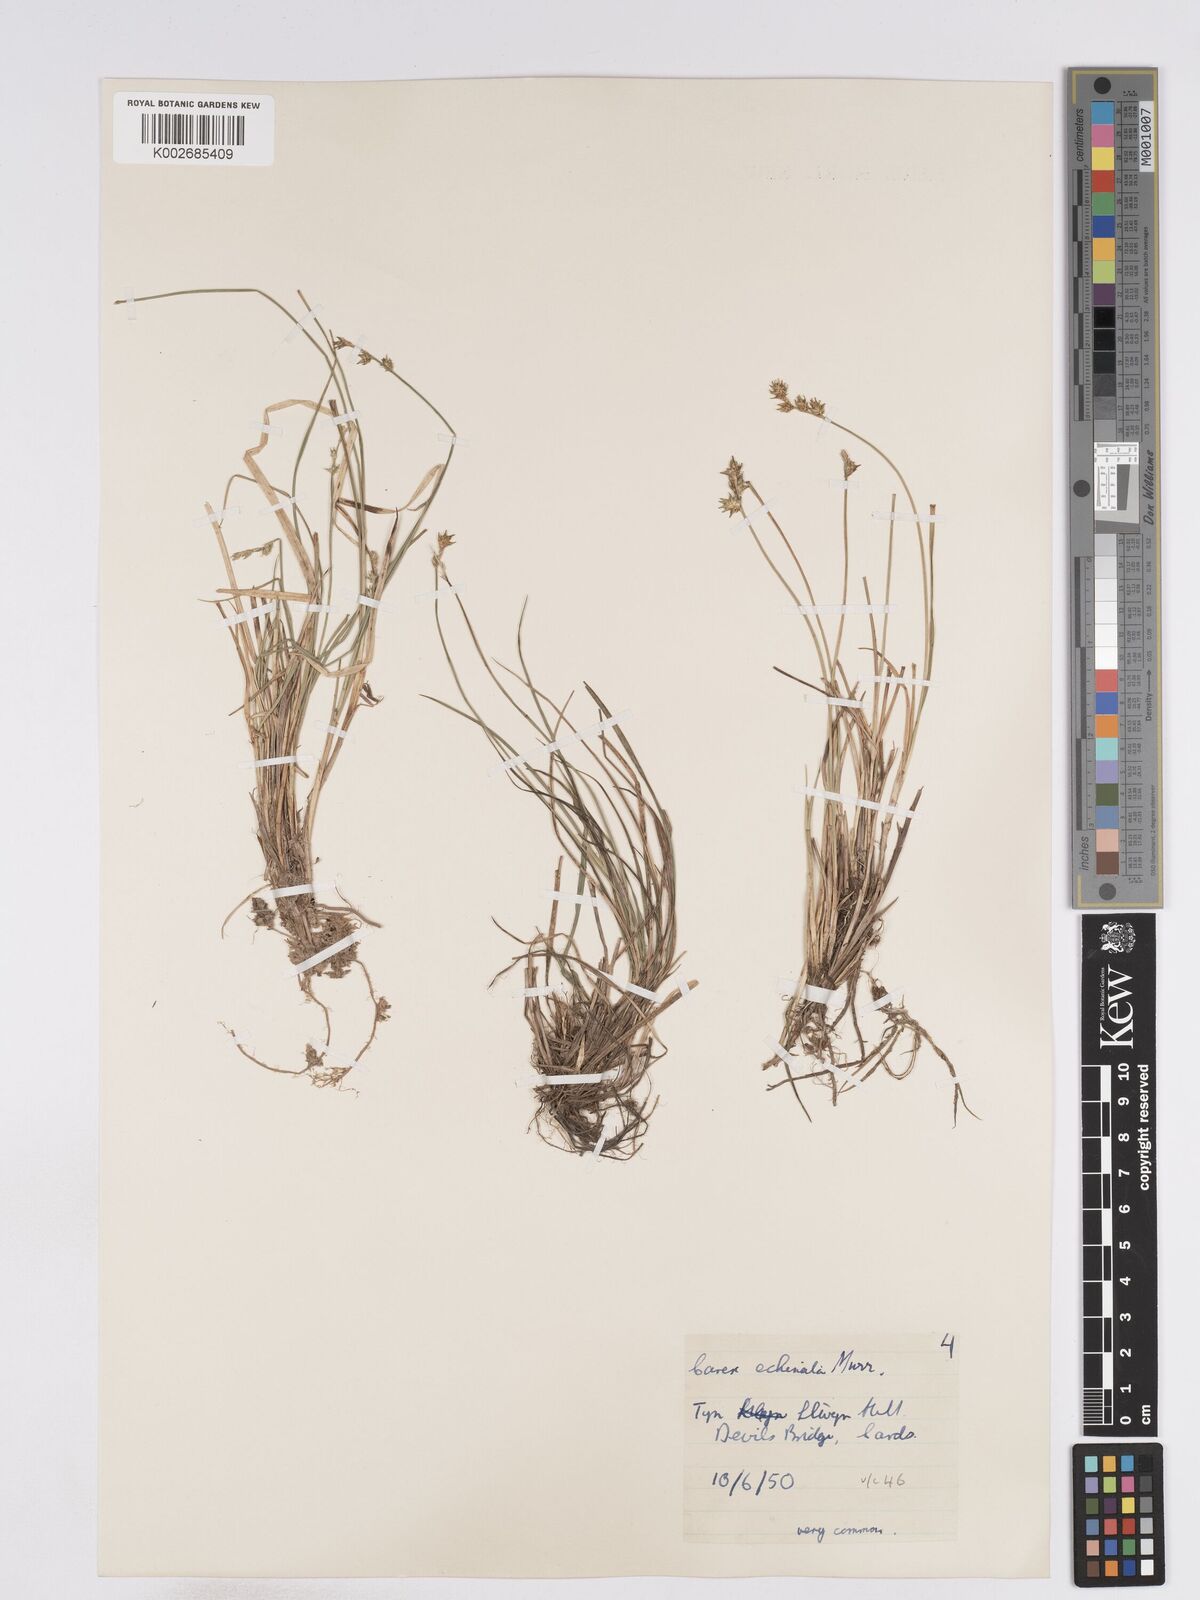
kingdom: Plantae
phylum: Tracheophyta
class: Liliopsida
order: Poales
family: Cyperaceae
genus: Carex
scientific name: Carex echinata
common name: Star sedge
